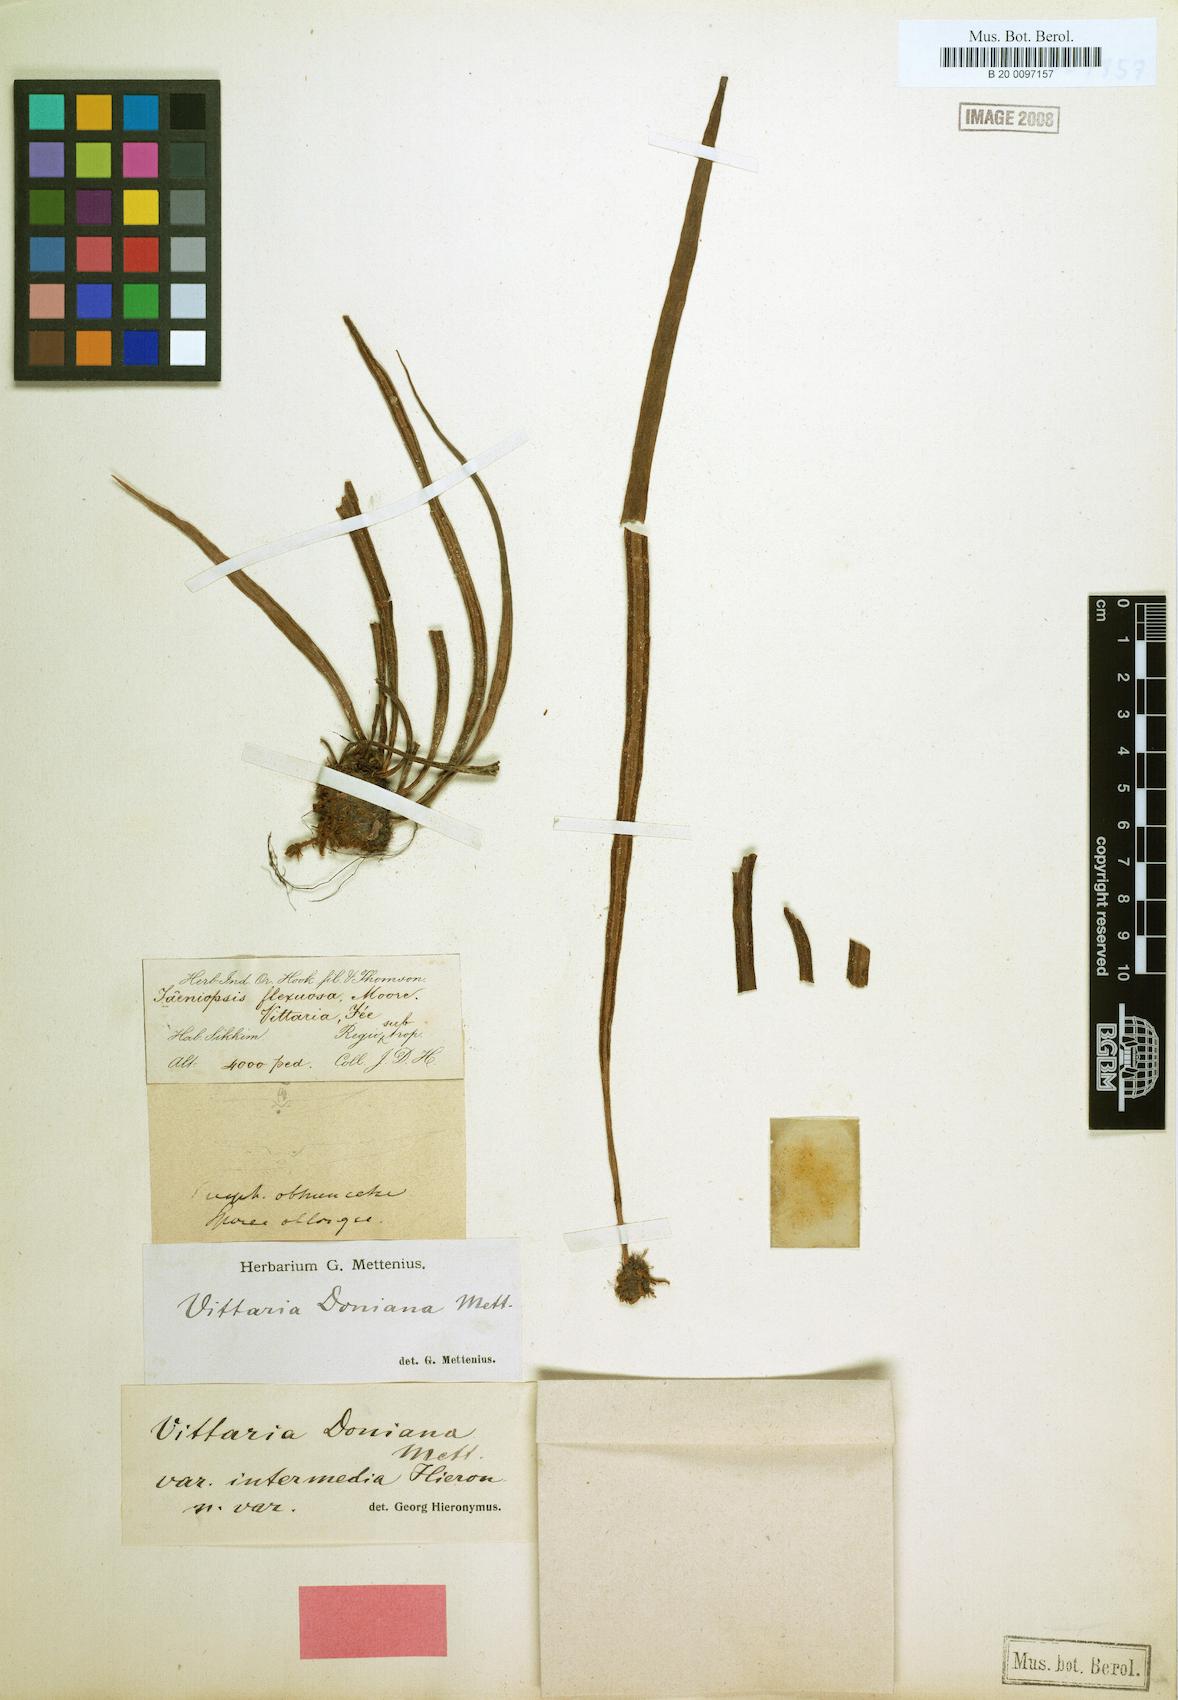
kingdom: Plantae
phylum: Tracheophyta
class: Polypodiopsida
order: Polypodiales
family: Pteridaceae
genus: Haplopteris
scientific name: Haplopteris taeniophylla
